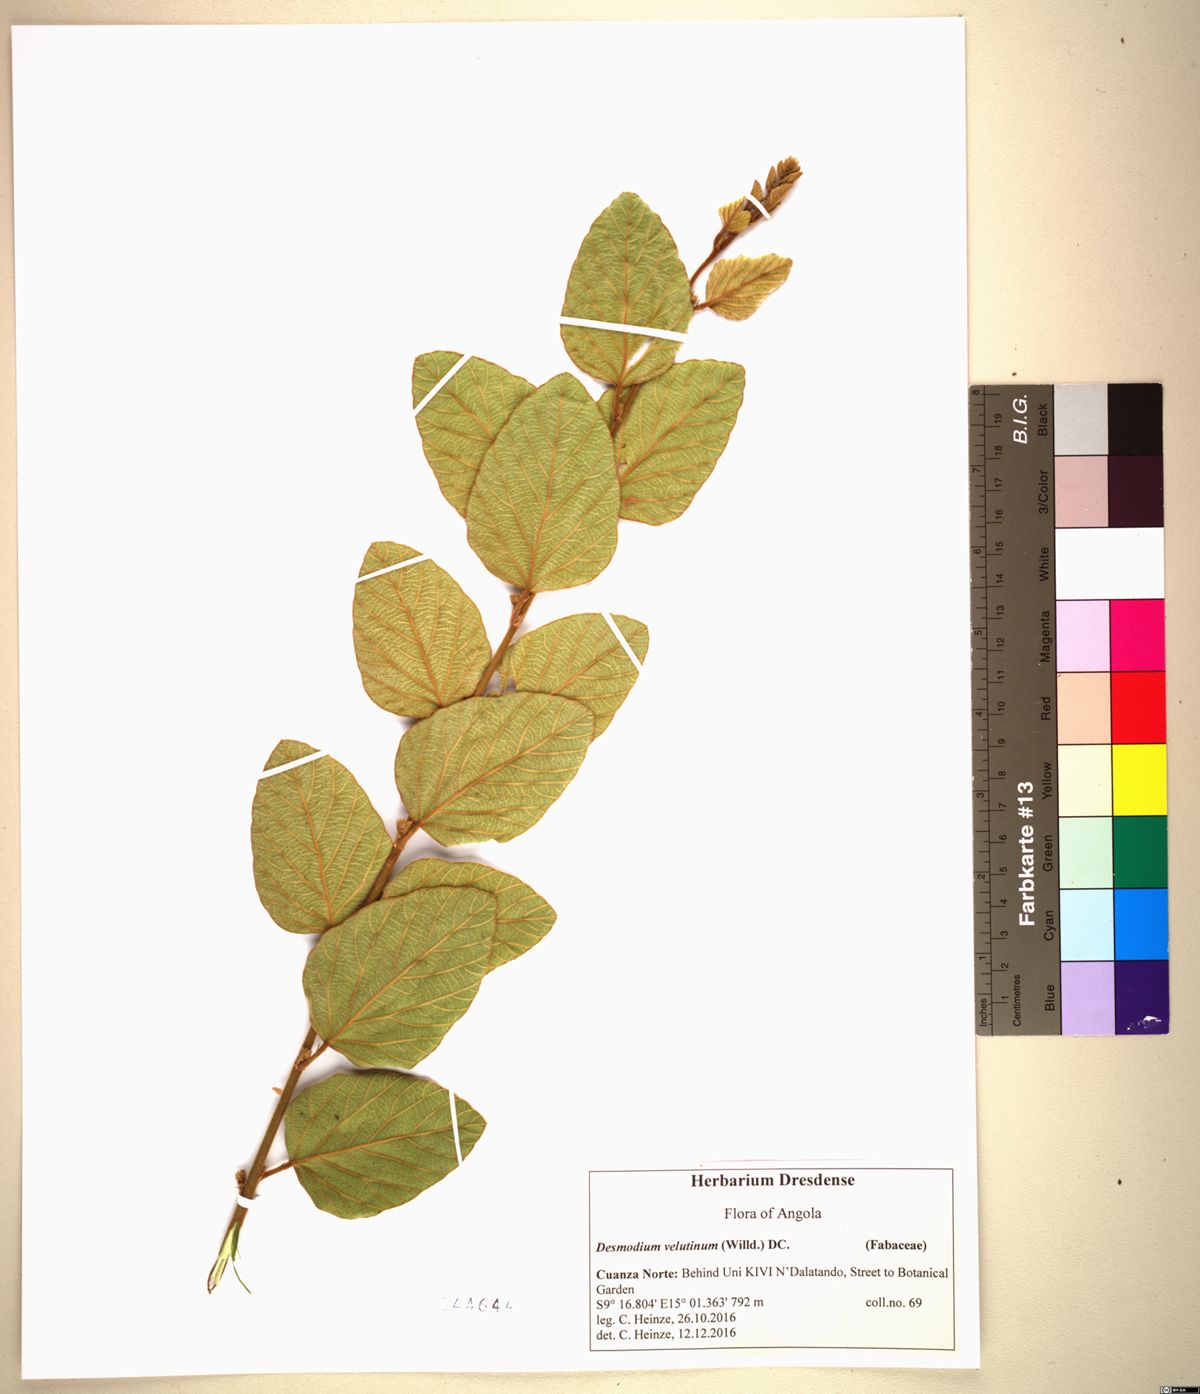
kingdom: Plantae
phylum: Tracheophyta
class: Magnoliopsida
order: Fabales
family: Fabaceae
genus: Polhillides
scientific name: Polhillides velutina
